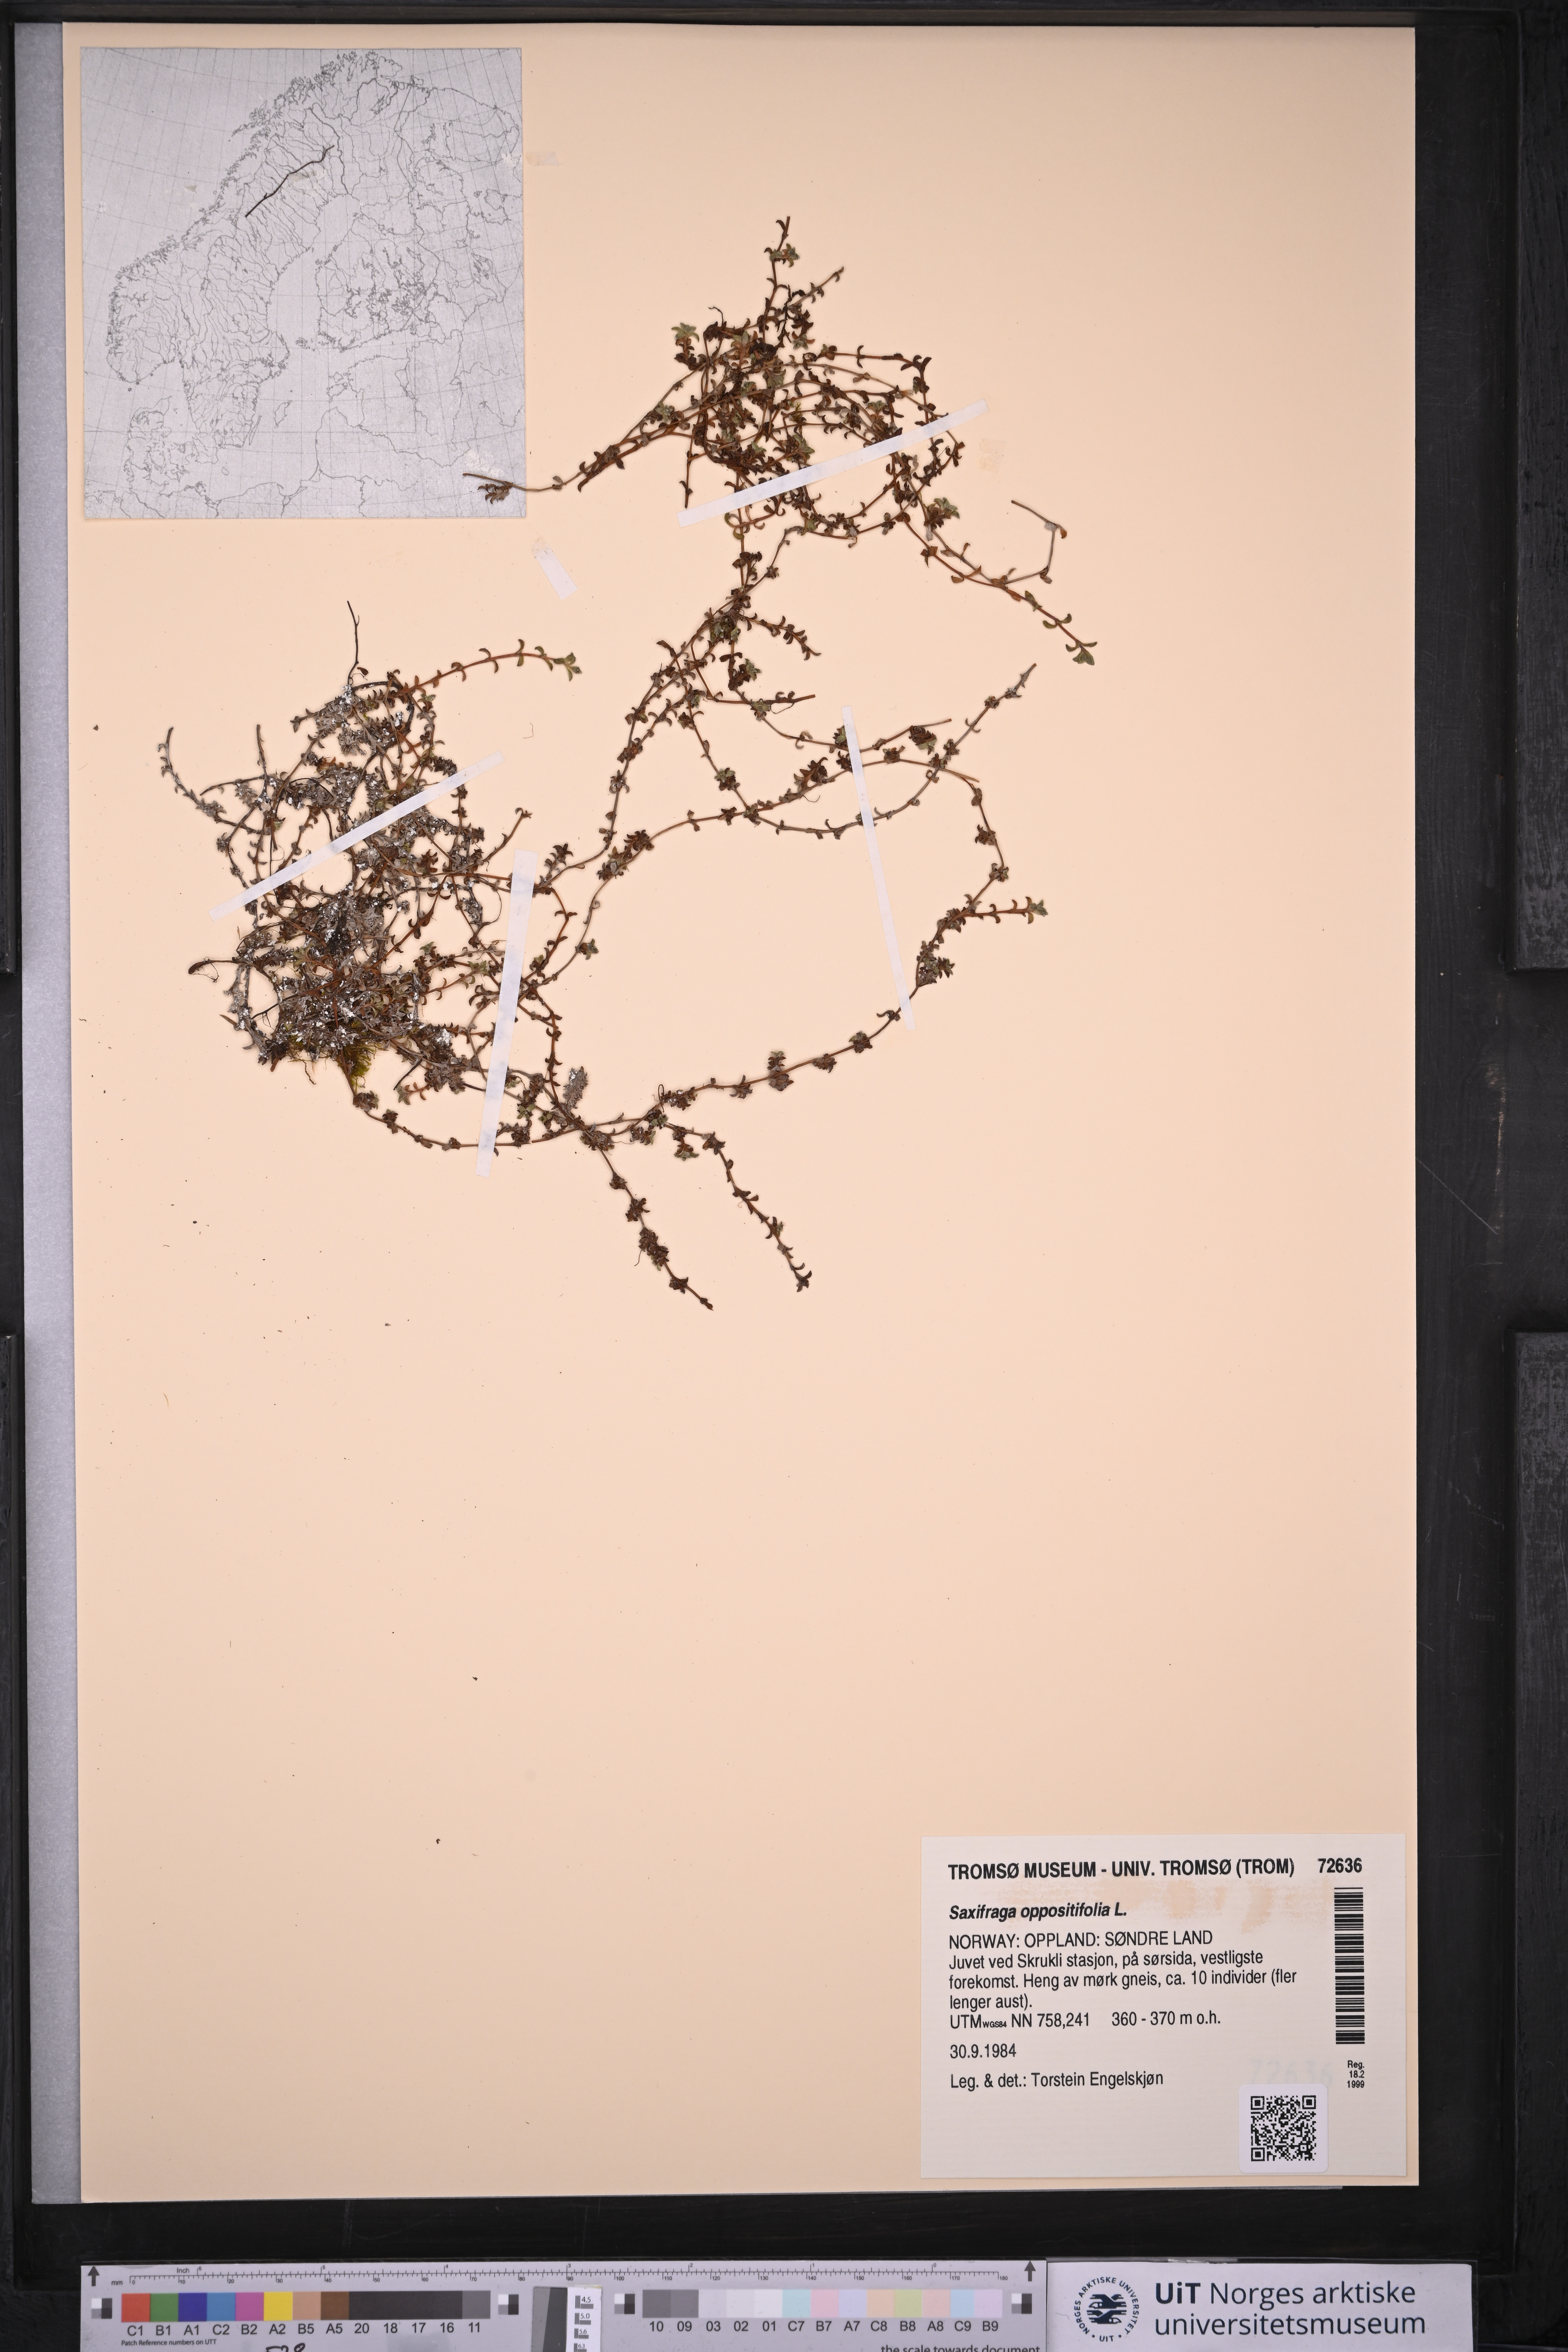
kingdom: Plantae
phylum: Tracheophyta
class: Magnoliopsida
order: Saxifragales
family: Saxifragaceae
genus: Saxifraga
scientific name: Saxifraga oppositifolia
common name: Purple saxifrage
